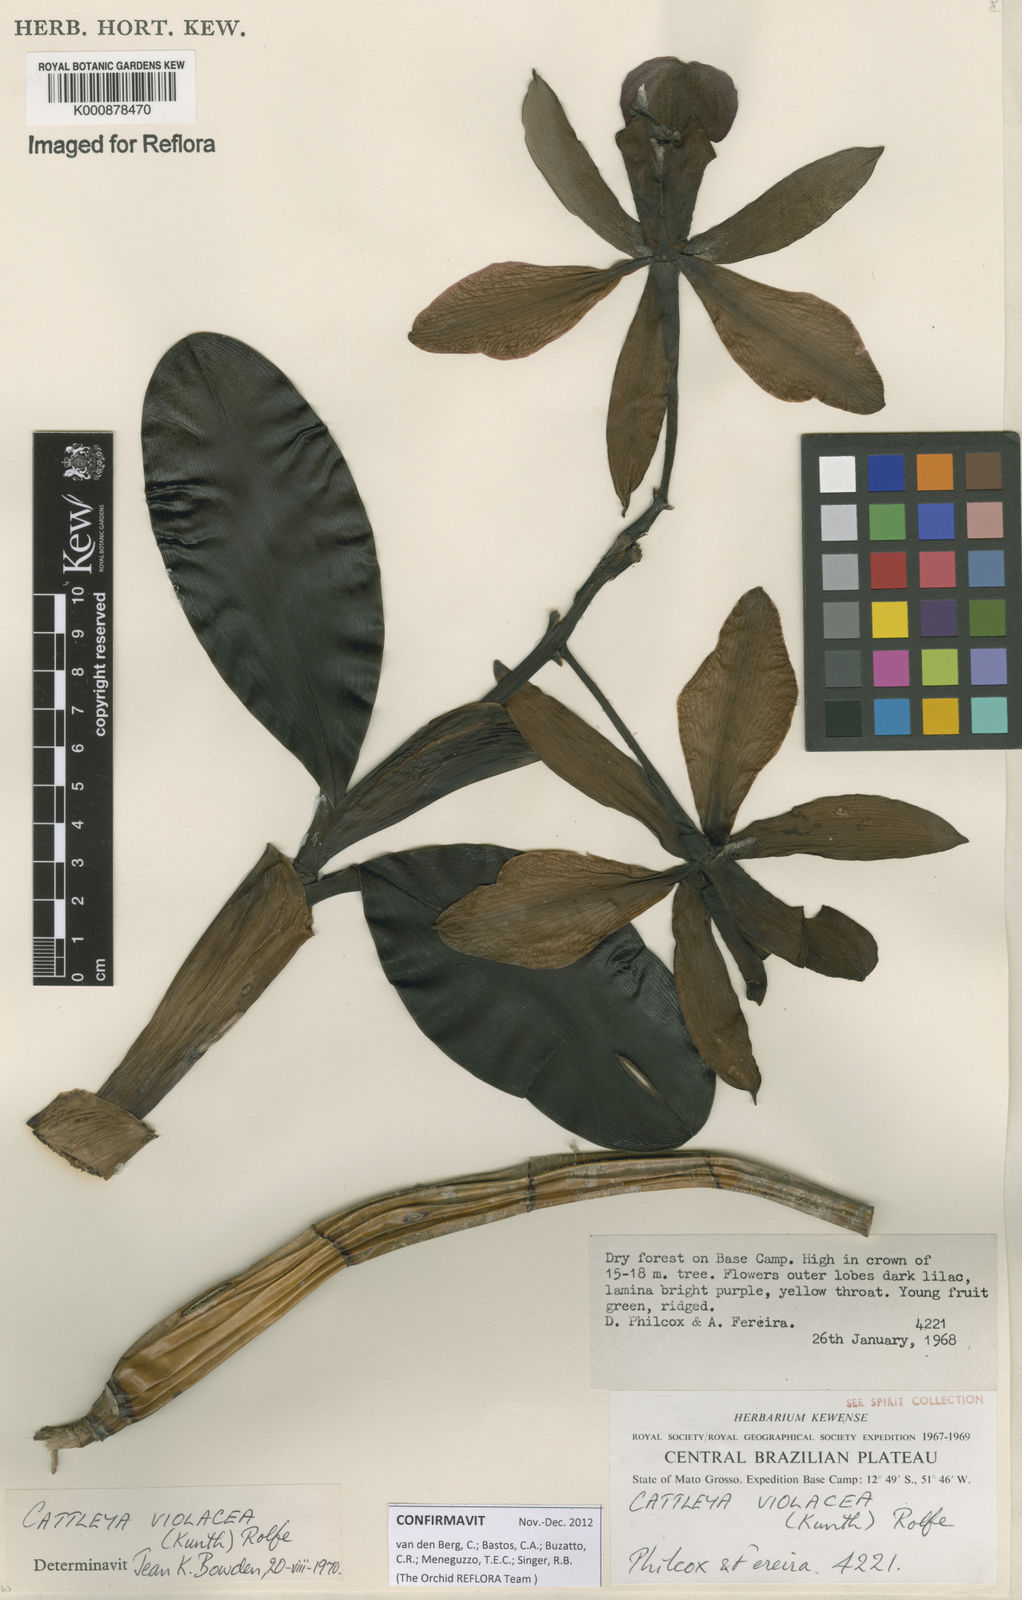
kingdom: Plantae
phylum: Tracheophyta
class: Liliopsida
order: Asparagales
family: Orchidaceae
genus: Cattleya
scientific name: Cattleya
